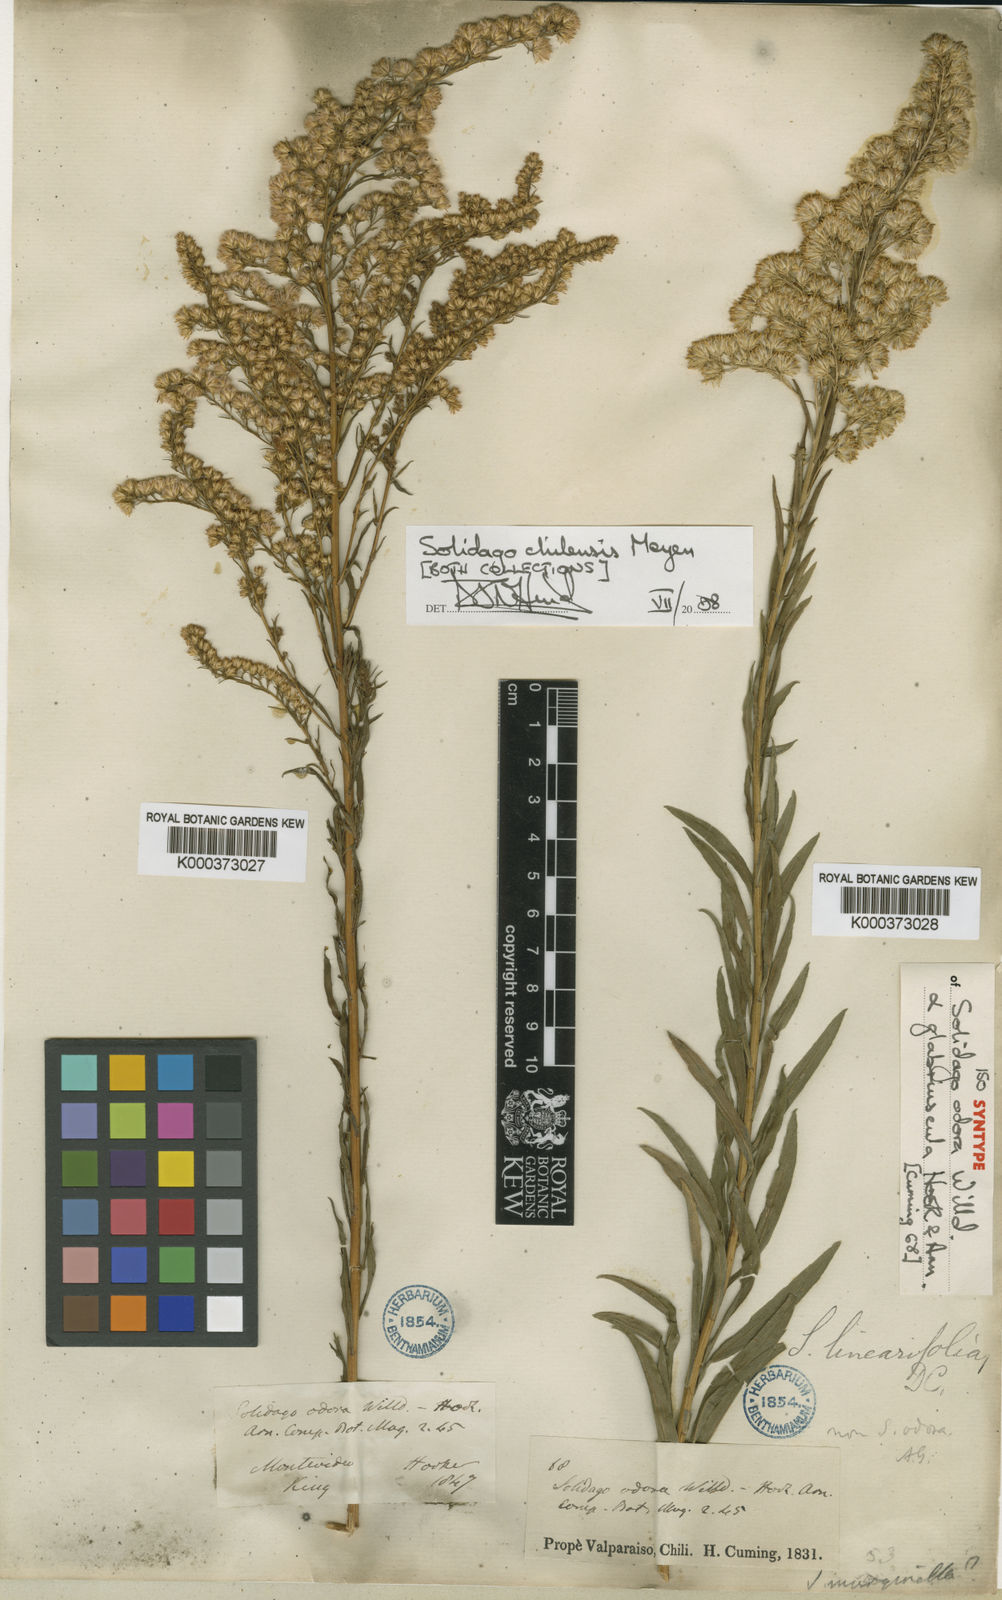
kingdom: Plantae
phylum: Tracheophyta
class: Magnoliopsida
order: Asterales
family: Asteraceae
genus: Solidago
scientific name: Solidago chilensis
